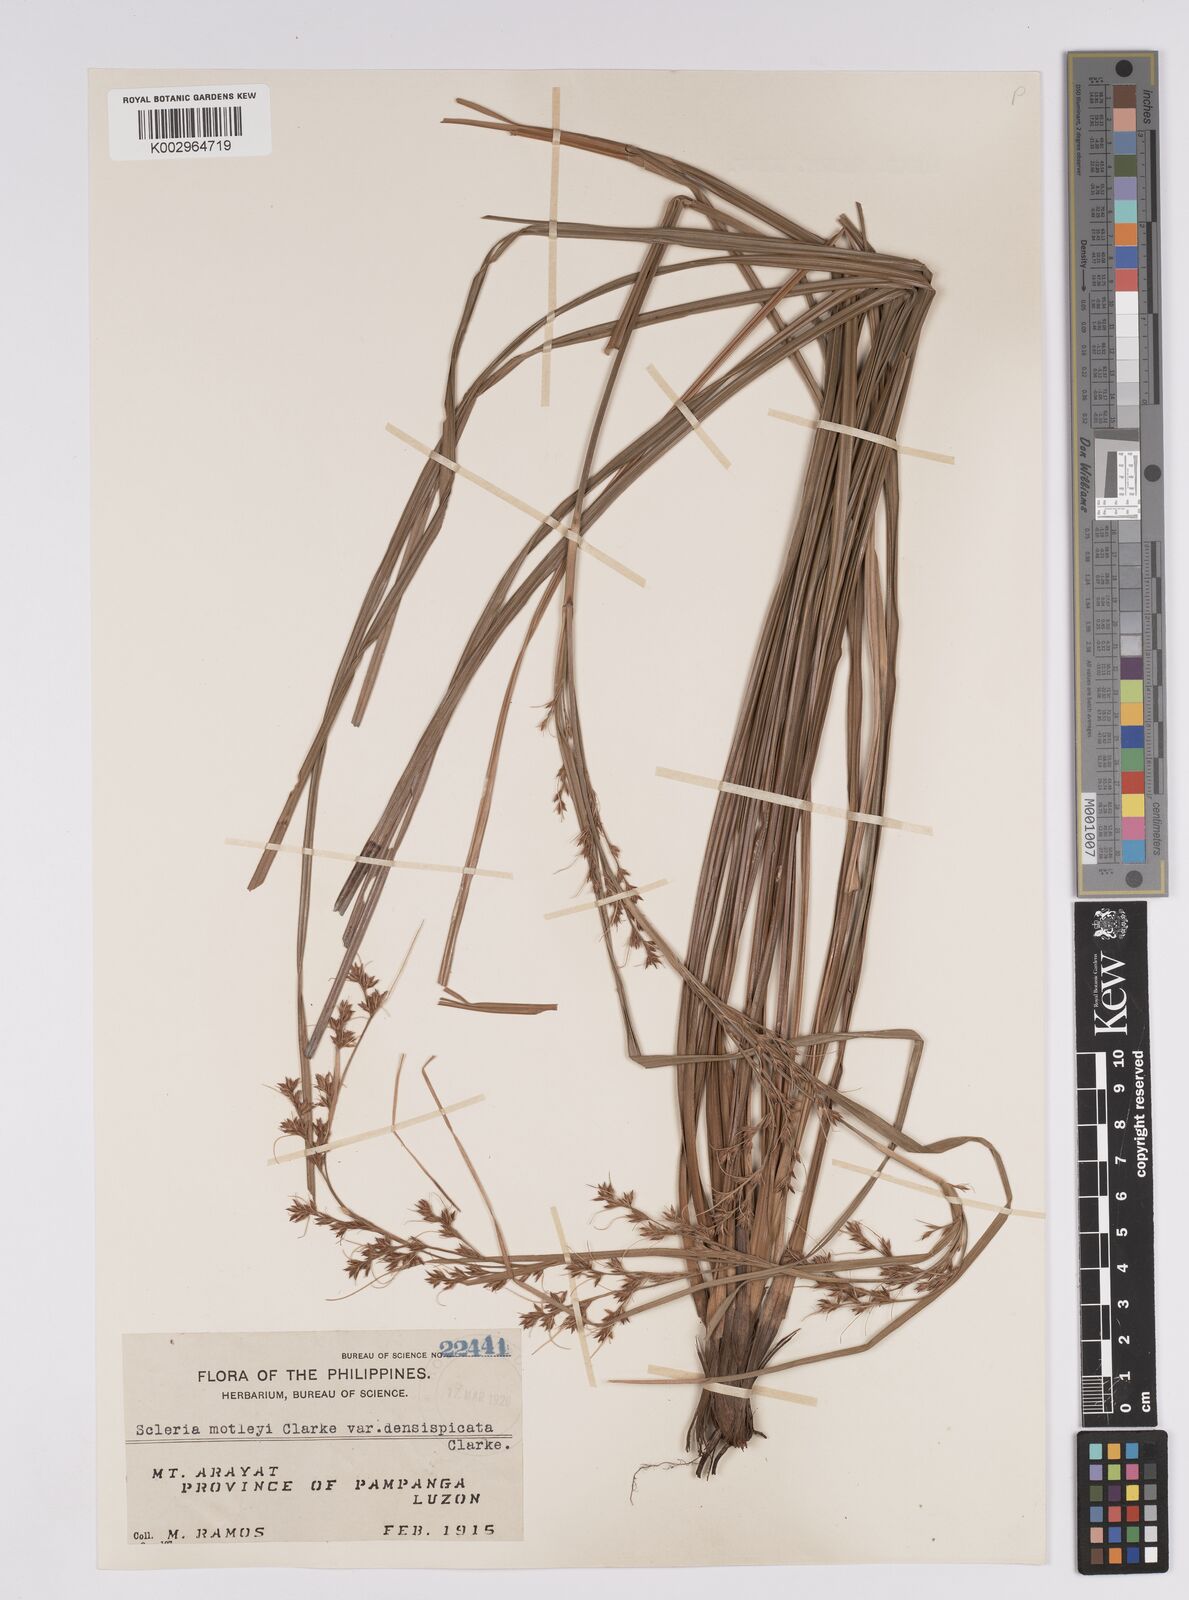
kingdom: Plantae
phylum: Tracheophyta
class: Liliopsida
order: Poales
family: Cyperaceae
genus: Scleria
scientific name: Scleria densispicata
